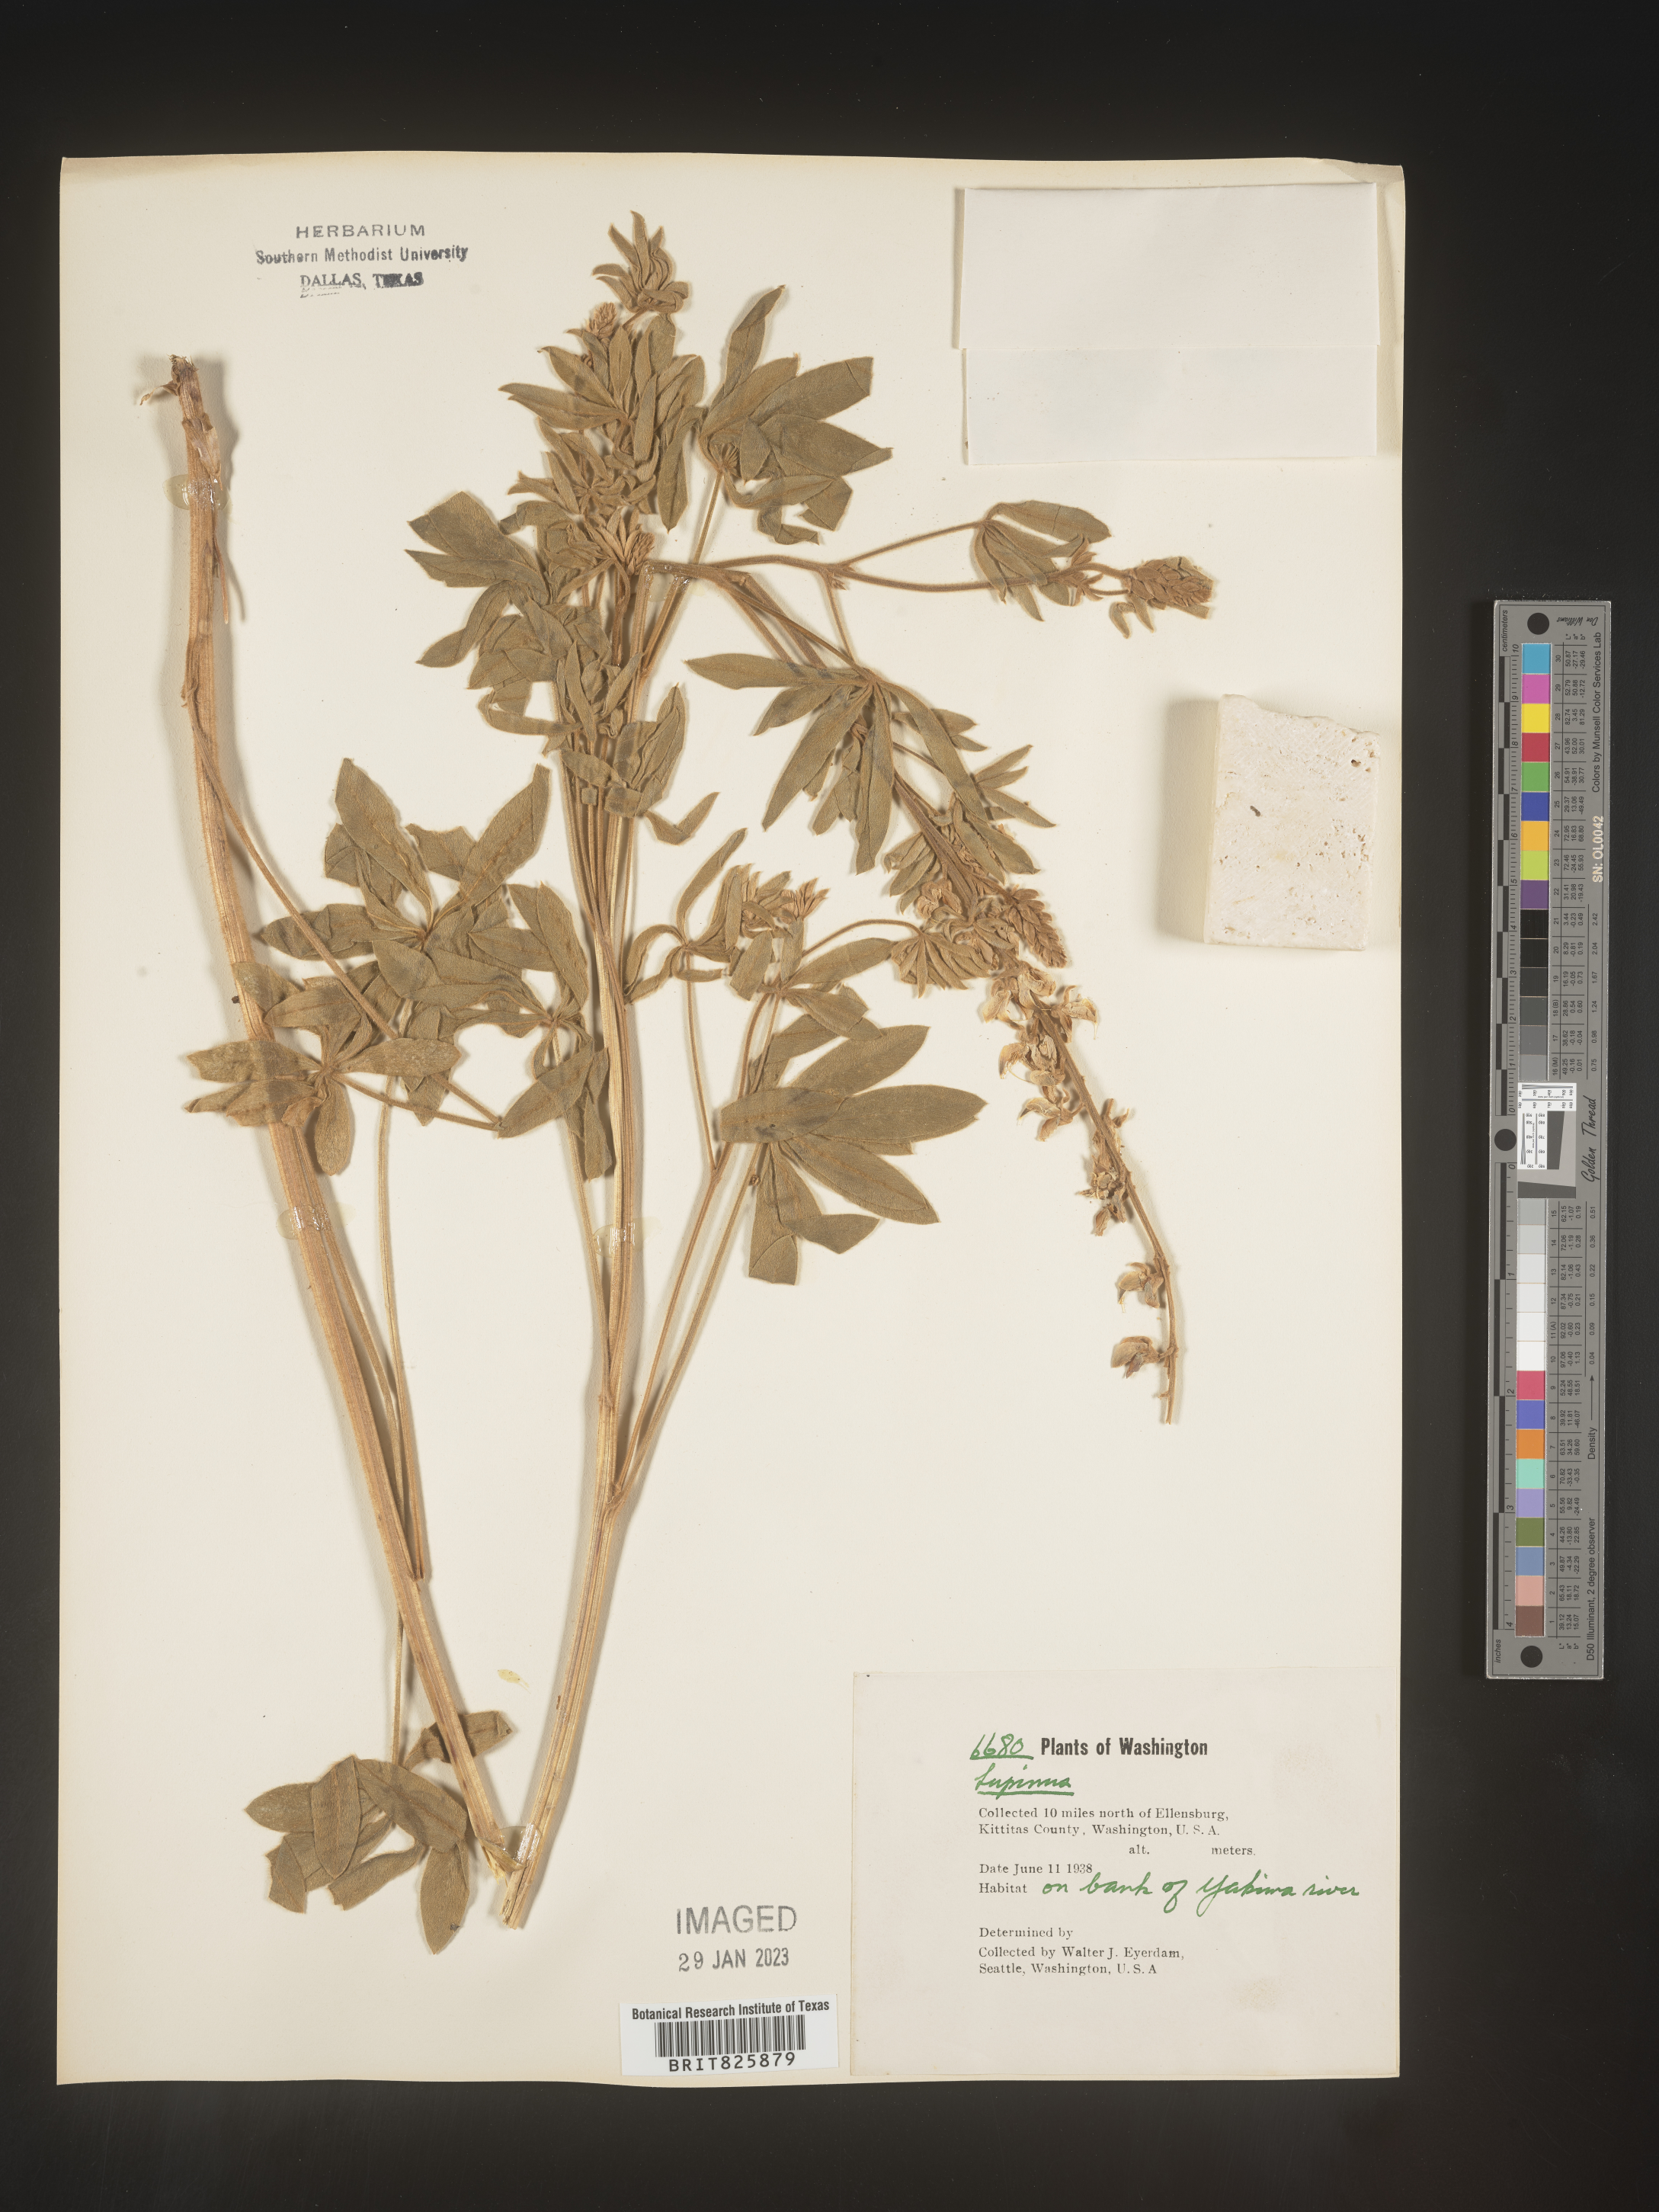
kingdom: Plantae
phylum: Tracheophyta
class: Magnoliopsida
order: Fabales
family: Fabaceae
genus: Lupinus
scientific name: Lupinus
